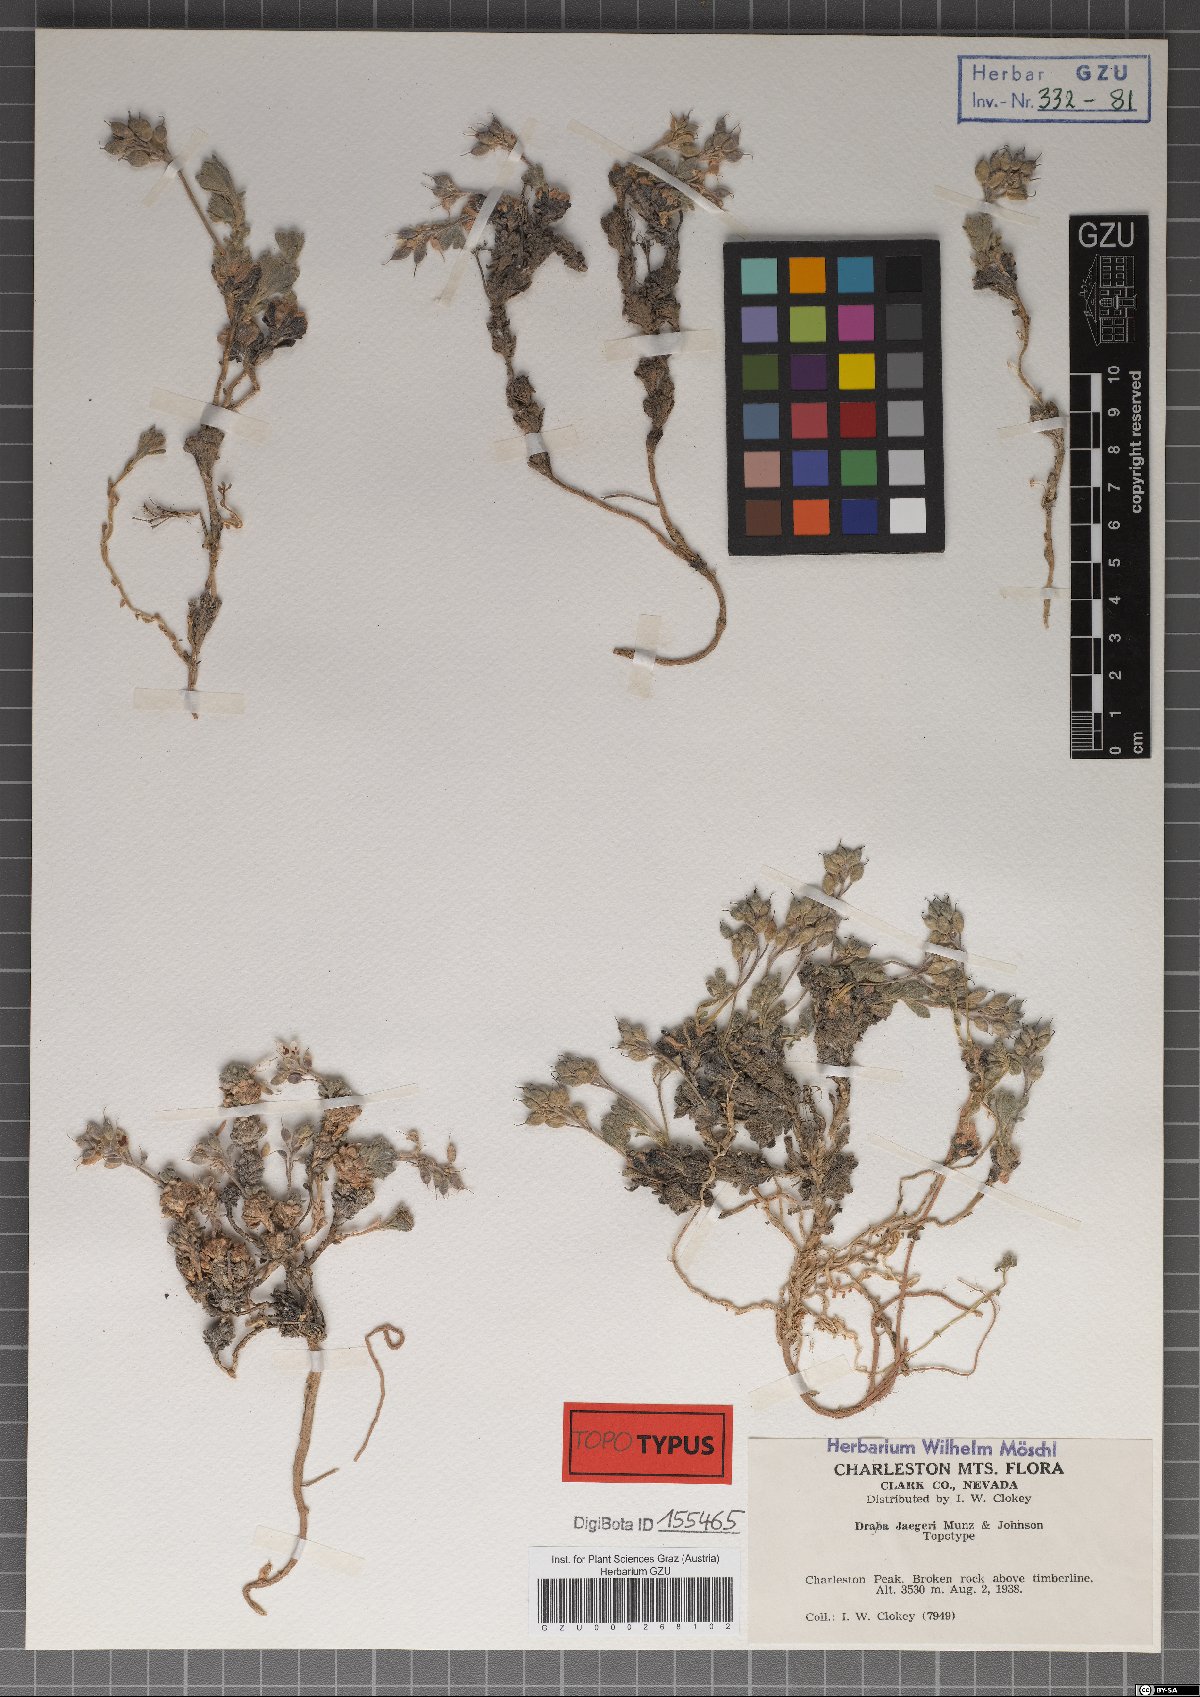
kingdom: Plantae
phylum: Tracheophyta
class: Magnoliopsida
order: Brassicales
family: Brassicaceae
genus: Draba
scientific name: Draba jaegeri
